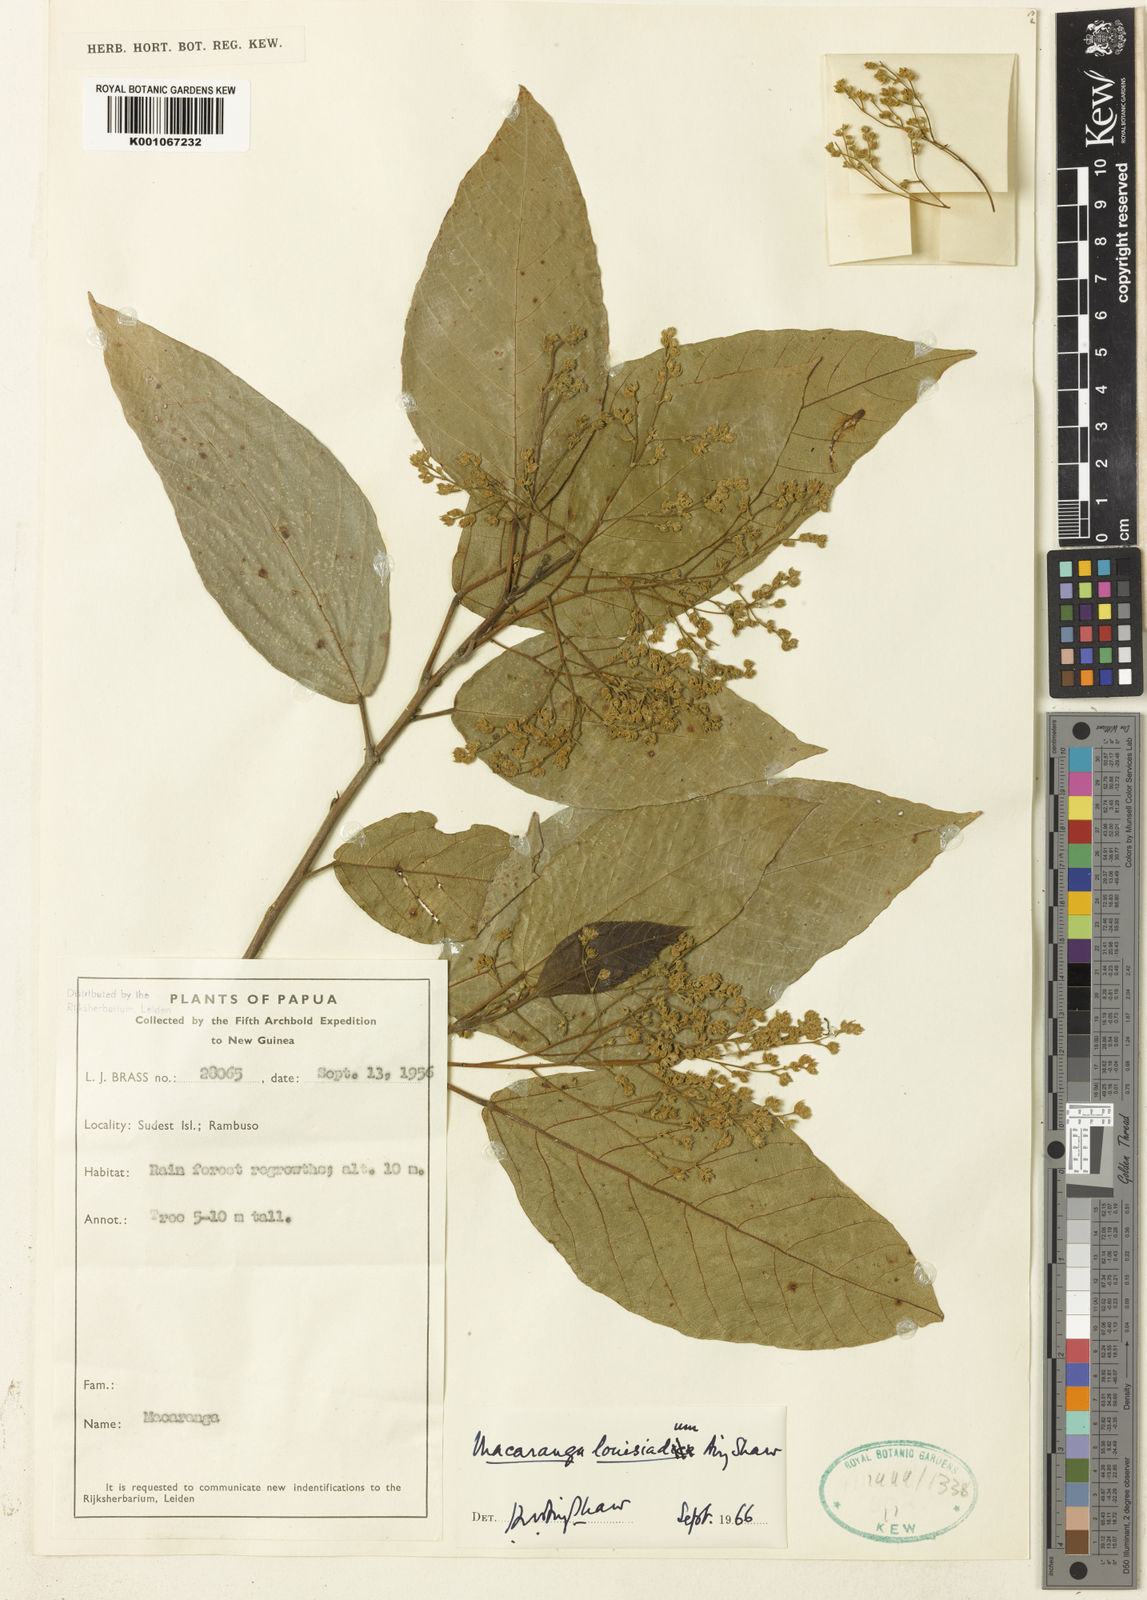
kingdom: Plantae
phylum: Tracheophyta
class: Magnoliopsida
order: Malpighiales
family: Euphorbiaceae
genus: Macaranga
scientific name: Macaranga louisiadum
